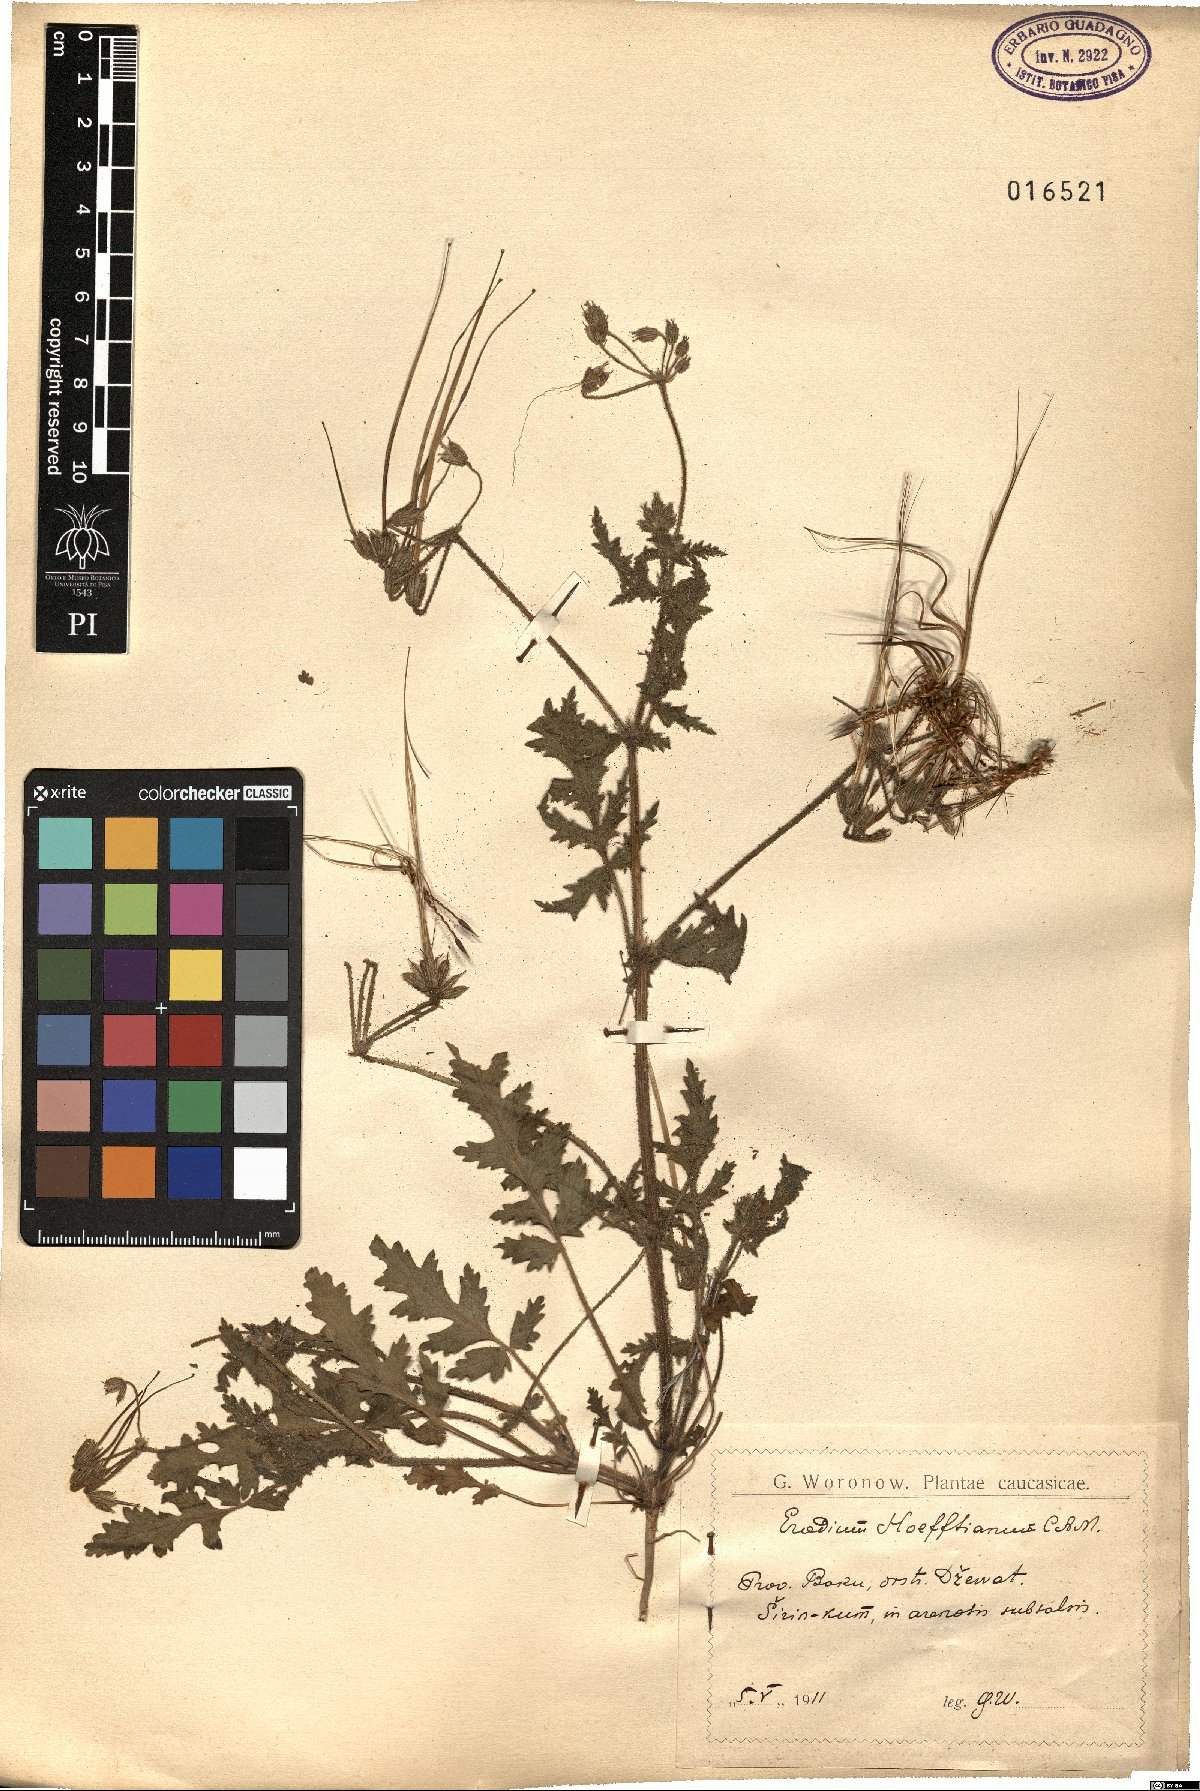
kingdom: Plantae
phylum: Tracheophyta
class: Magnoliopsida
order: Geraniales
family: Geraniaceae
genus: Erodium
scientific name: Erodium hoefftianum
